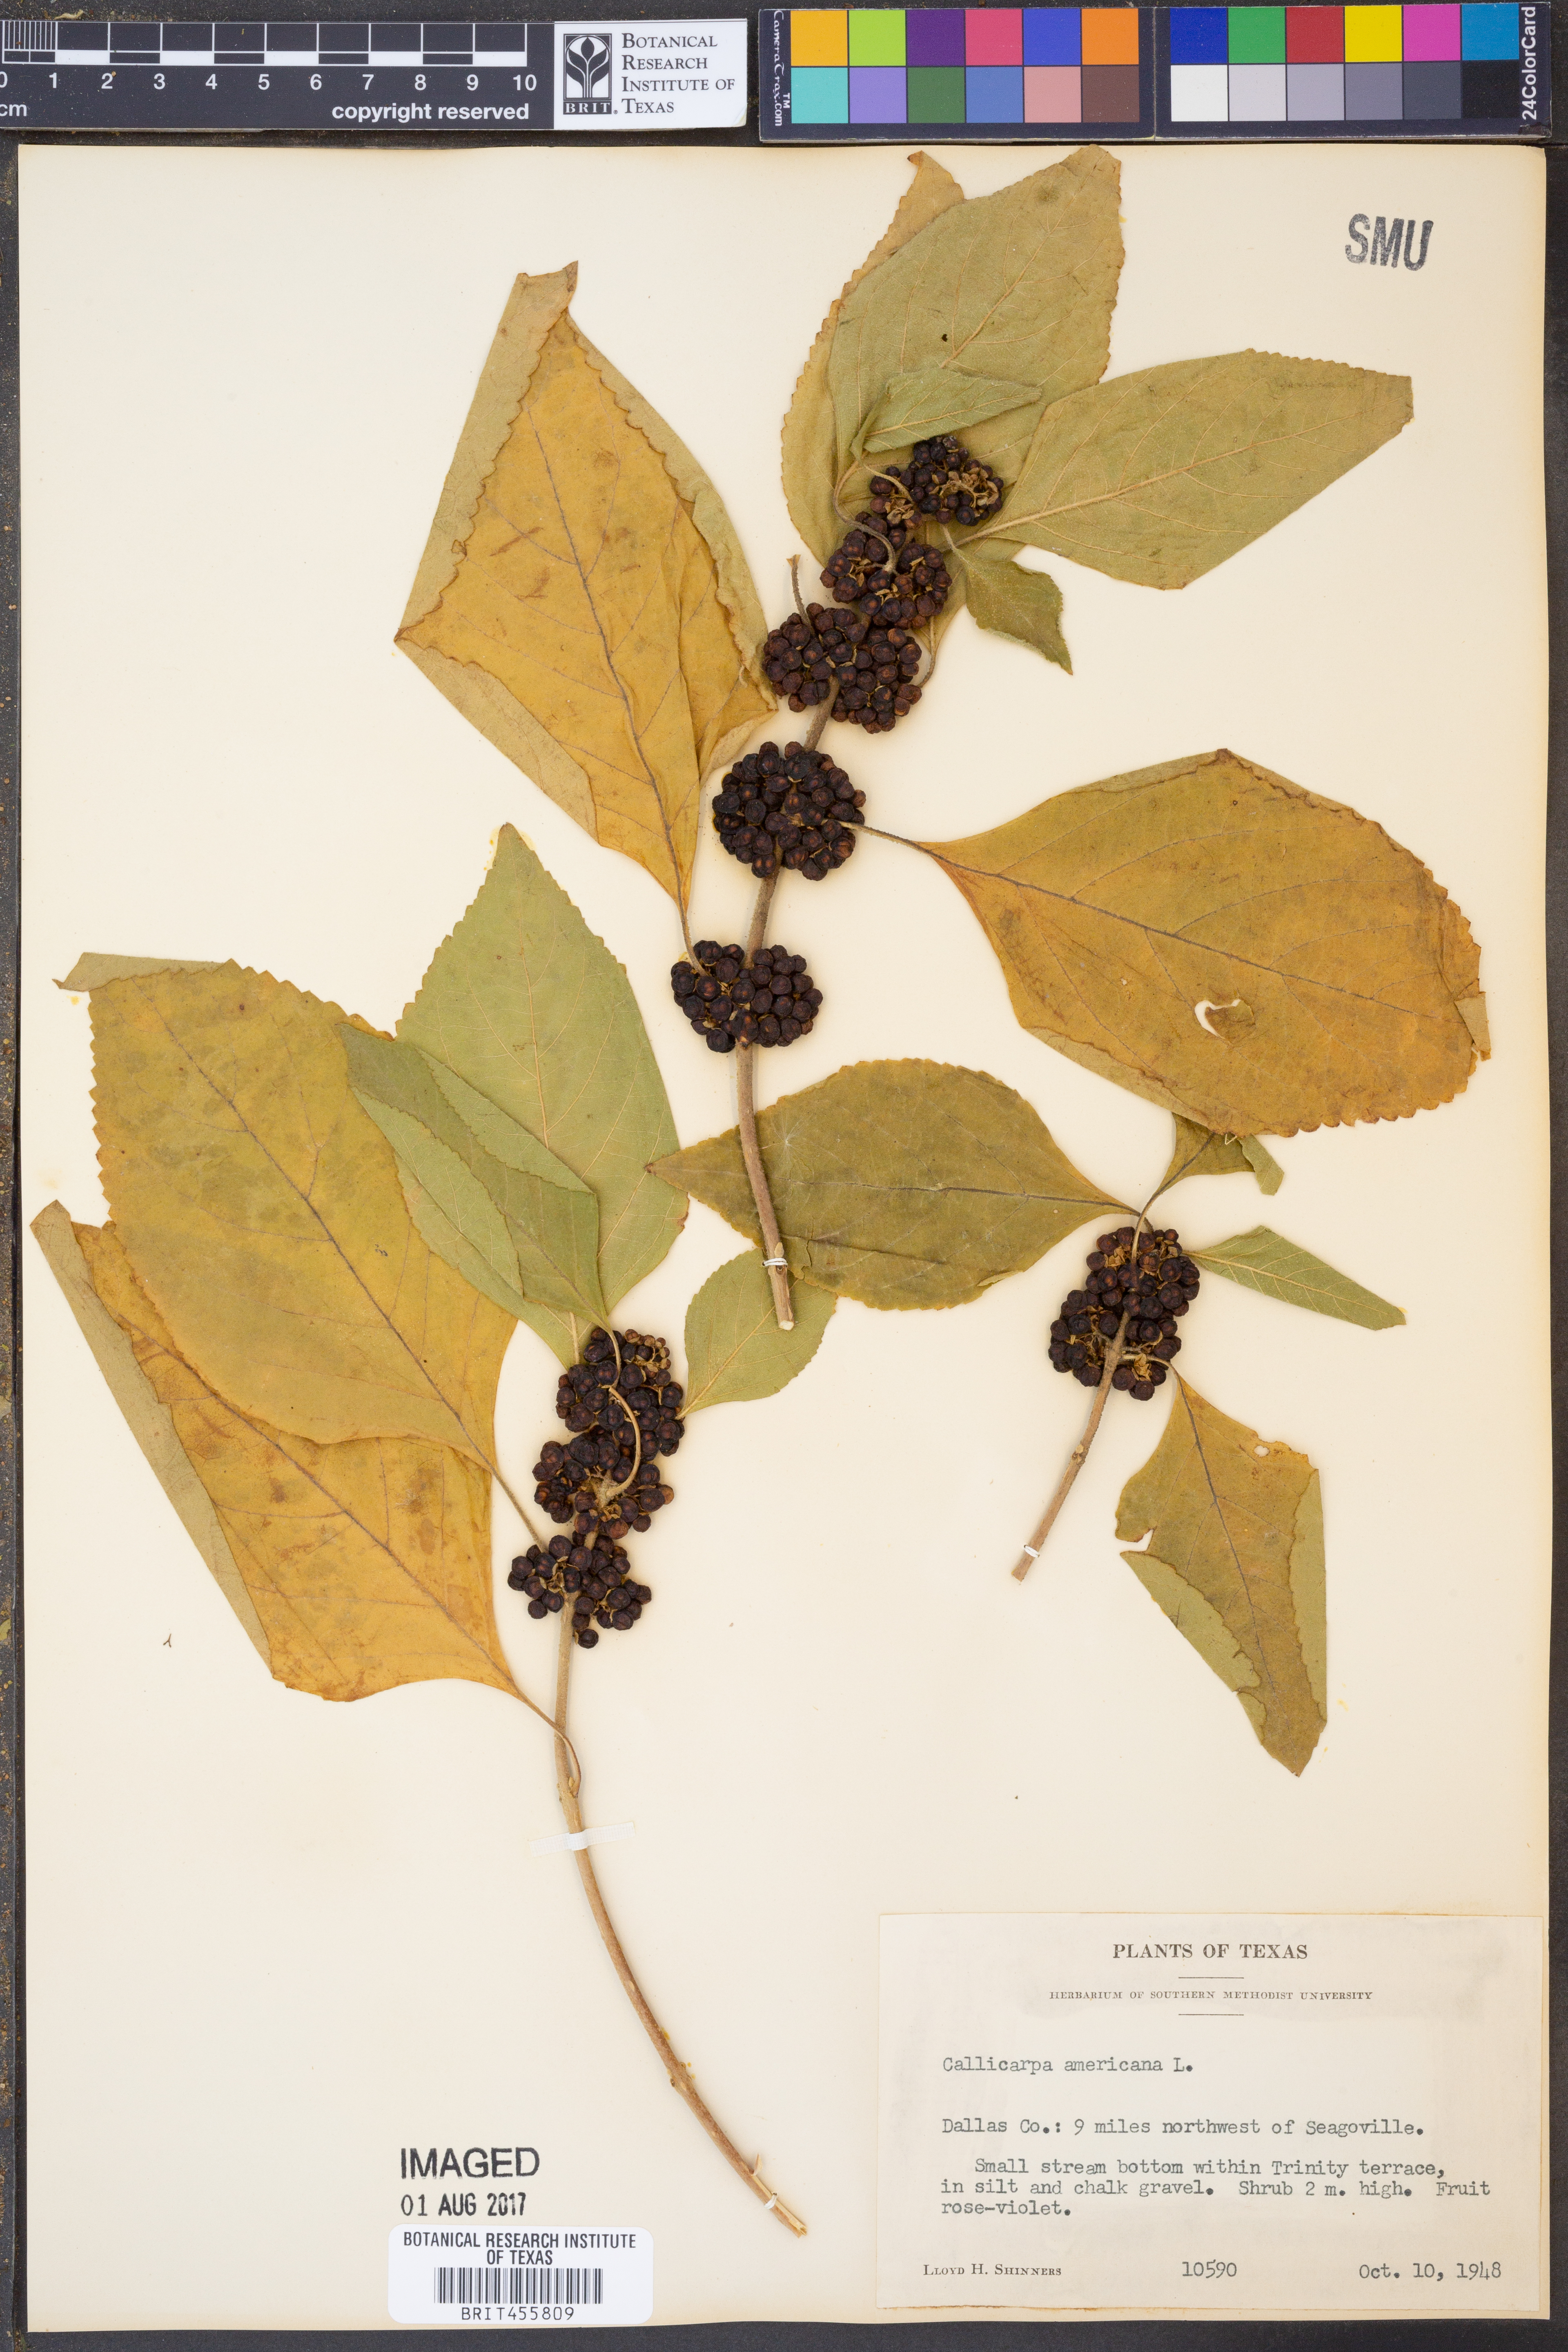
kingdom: Plantae
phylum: Tracheophyta
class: Magnoliopsida
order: Lamiales
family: Lamiaceae
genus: Callicarpa
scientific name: Callicarpa americana
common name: American beautyberry
